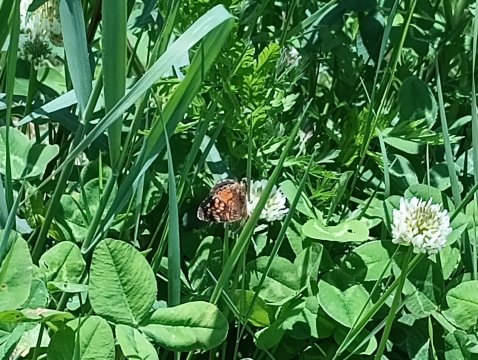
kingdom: Animalia
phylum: Arthropoda
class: Insecta
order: Lepidoptera
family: Nymphalidae
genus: Phyciodes
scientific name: Phyciodes
